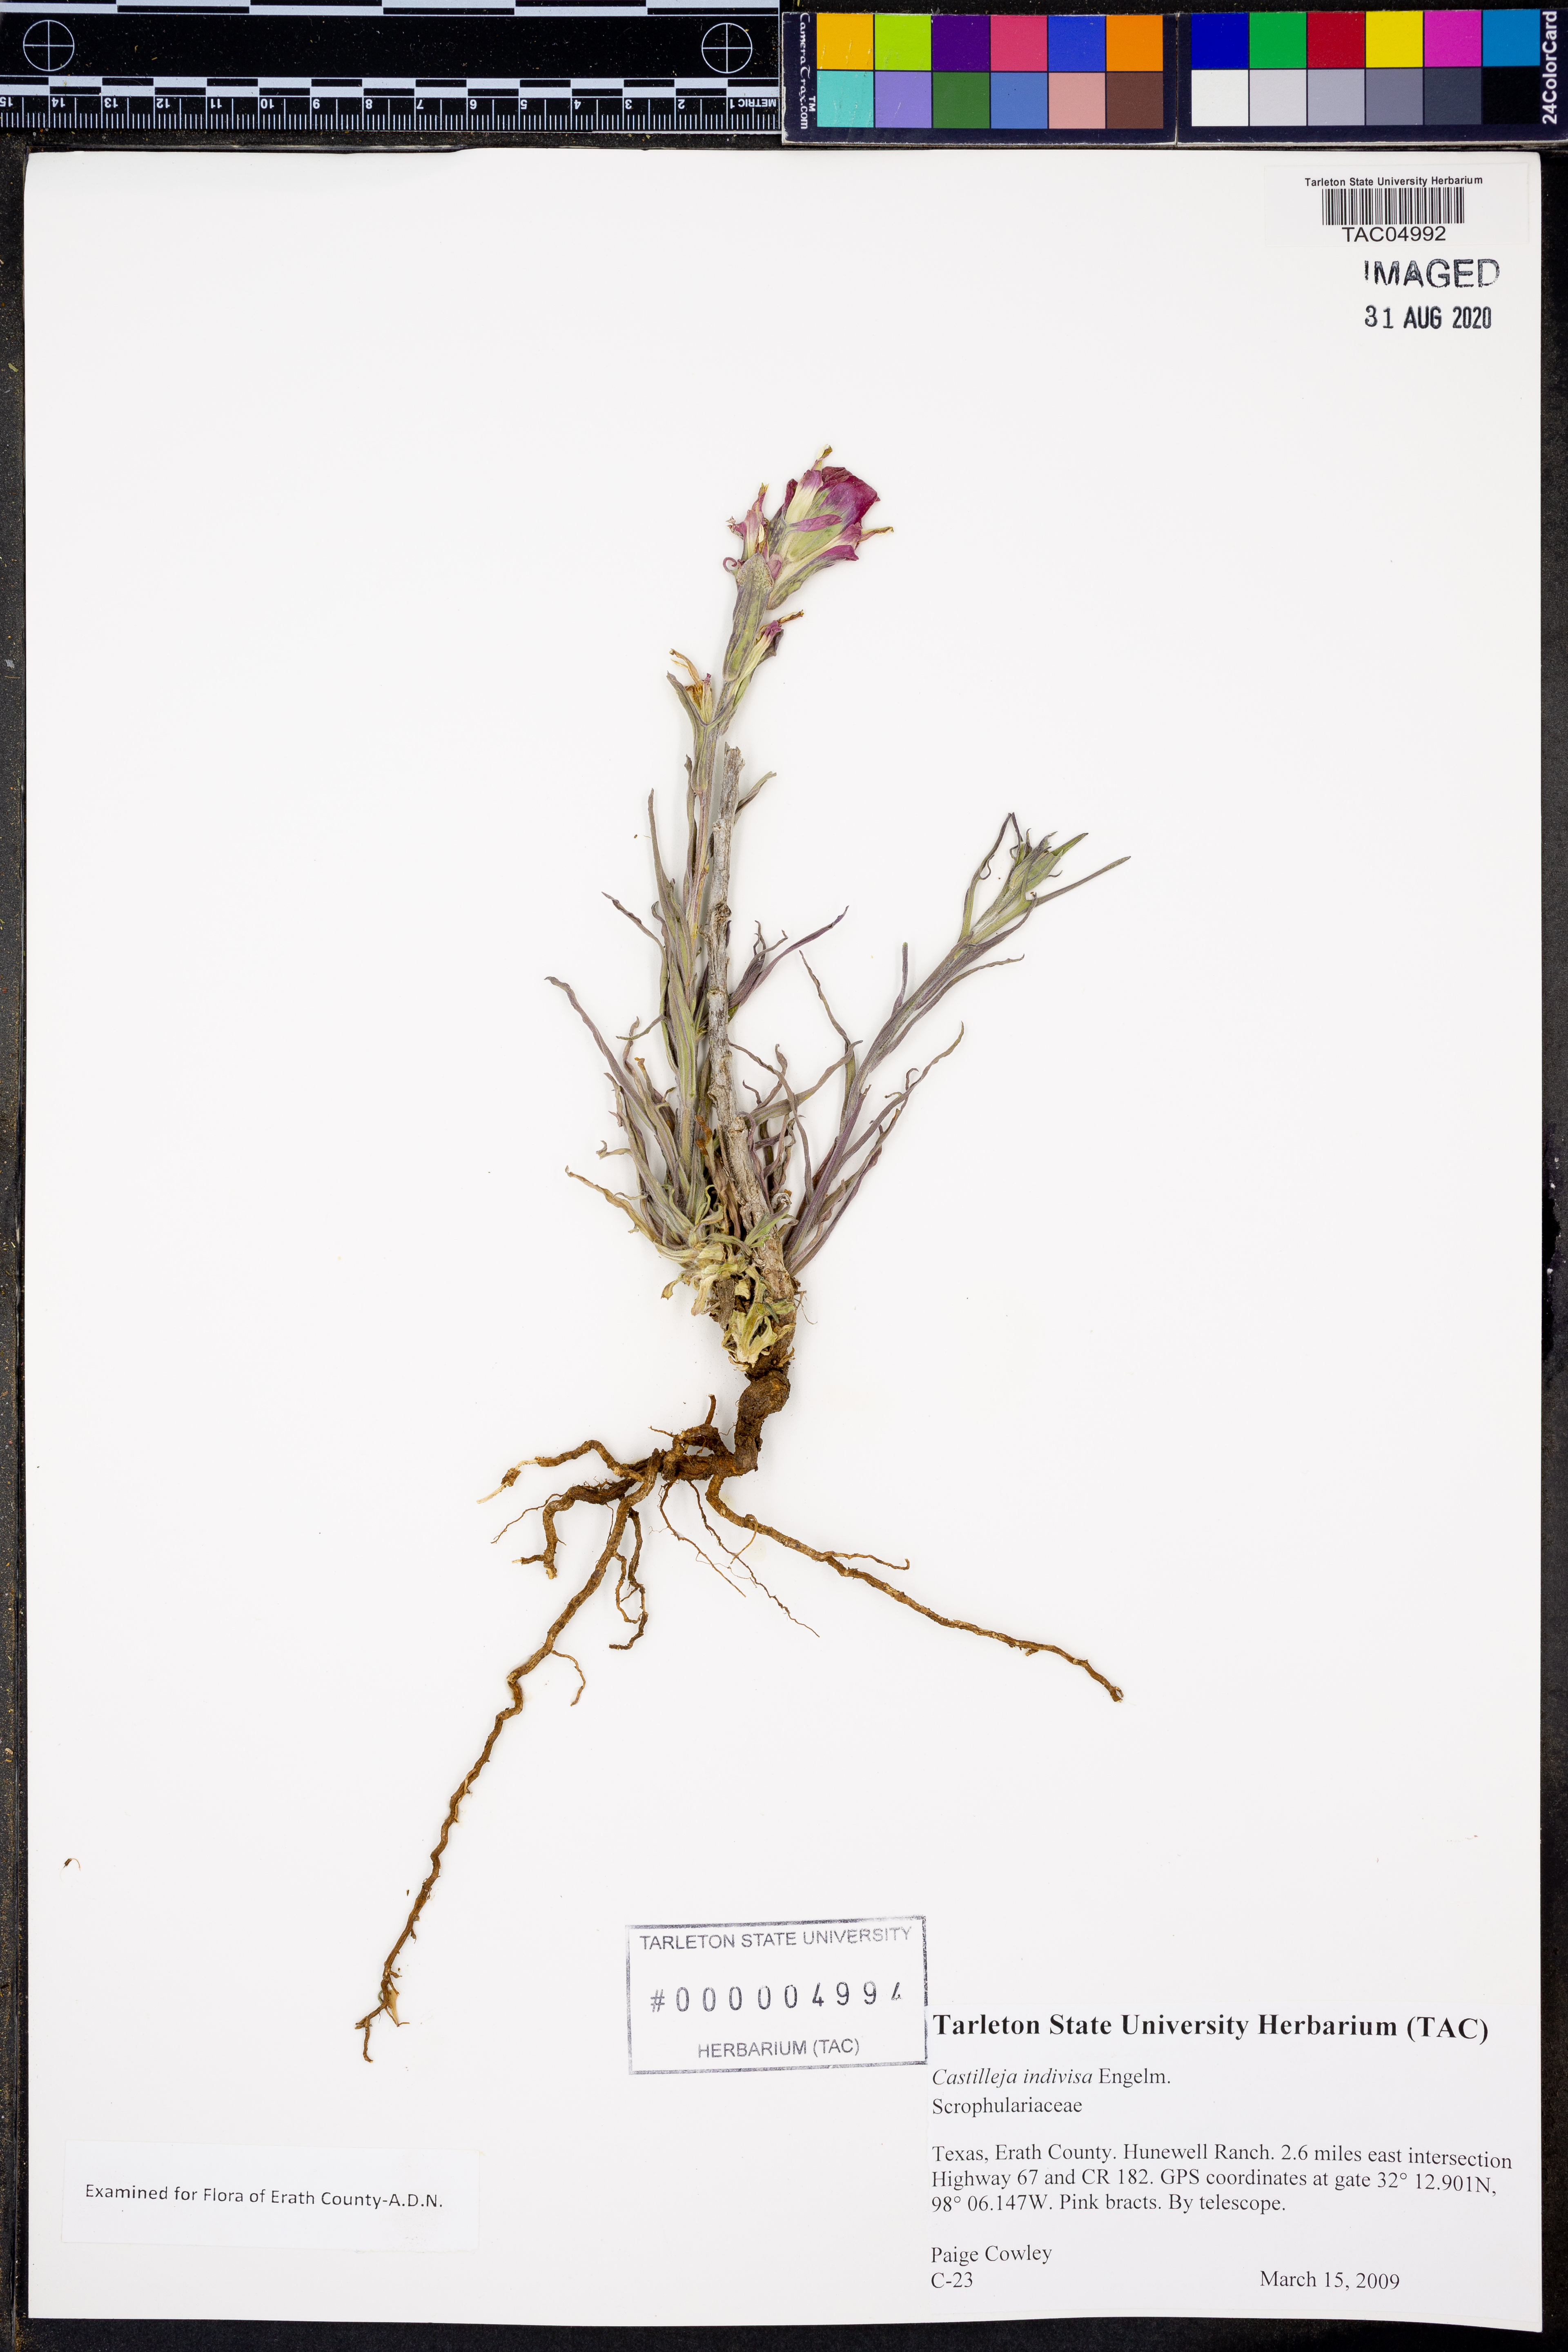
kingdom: Plantae
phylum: Tracheophyta
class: Magnoliopsida
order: Lamiales
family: Orobanchaceae
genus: Castilleja
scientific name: Castilleja indivisa
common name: Texas paintbrush
